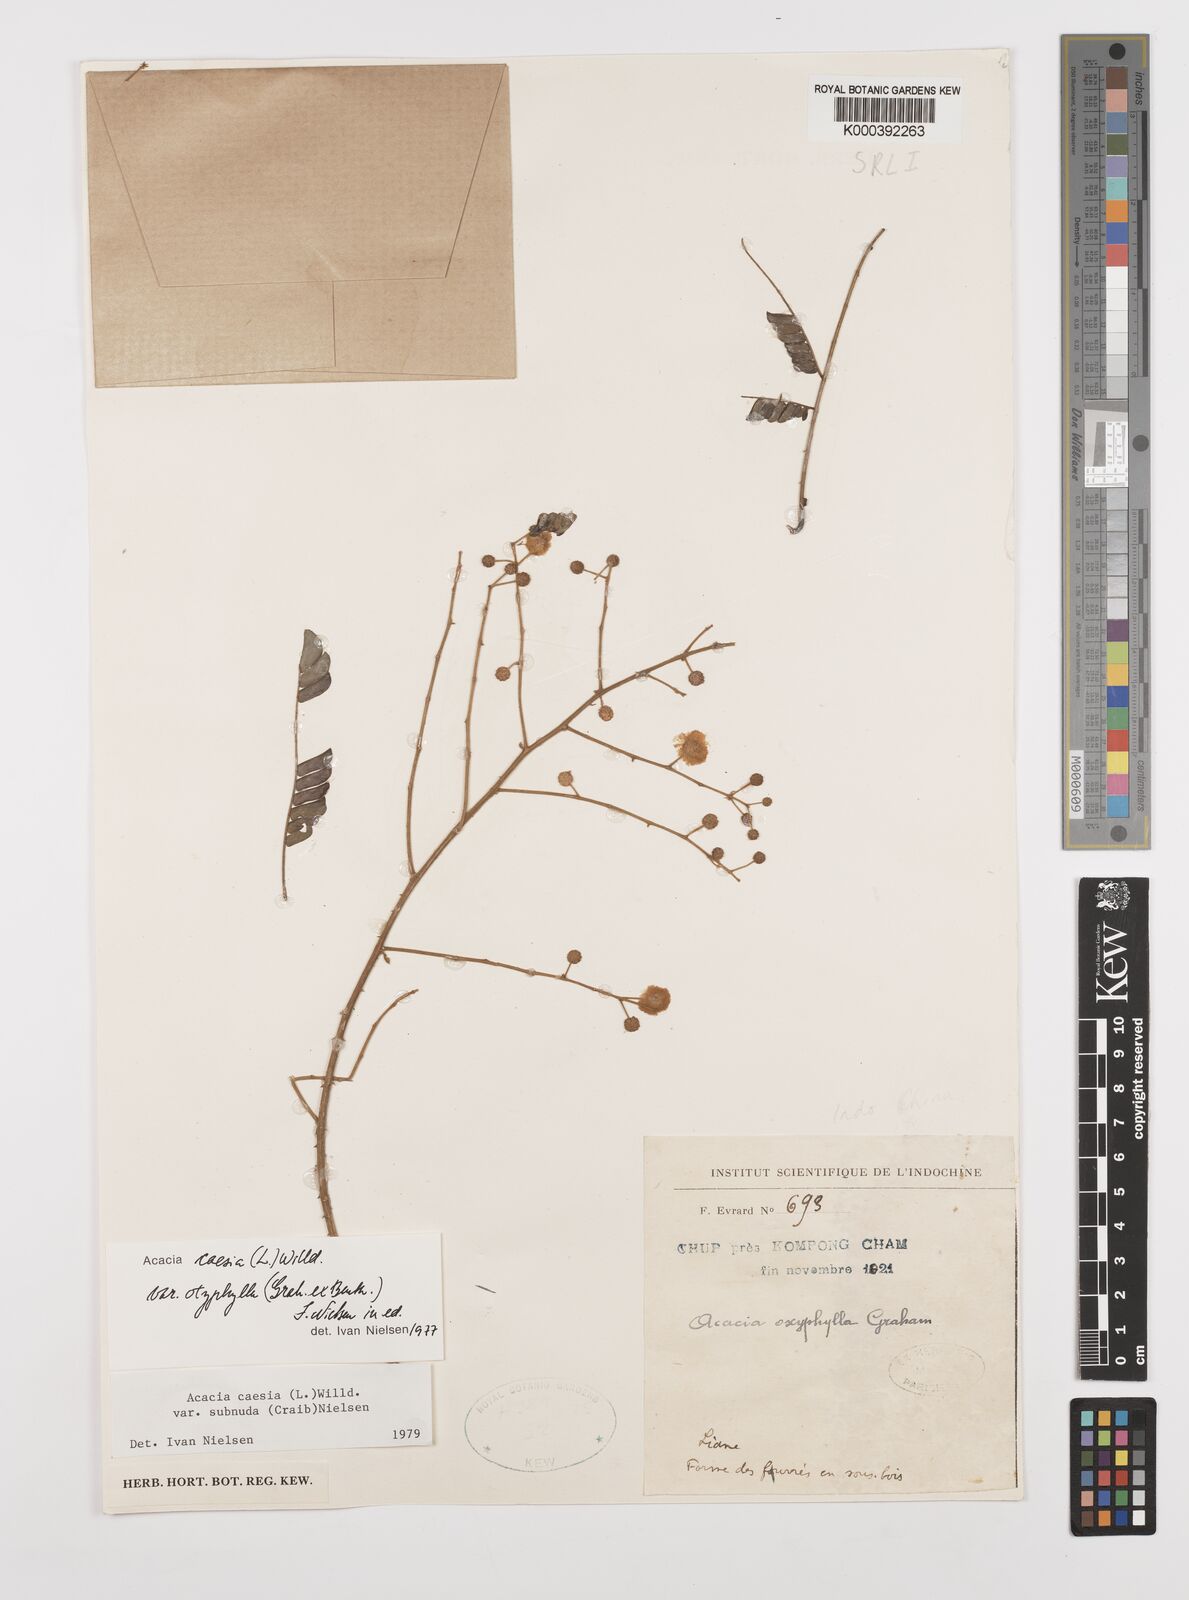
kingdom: Plantae
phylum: Tracheophyta
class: Magnoliopsida
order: Fabales
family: Fabaceae
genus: Senegalia
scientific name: Senegalia caesia
